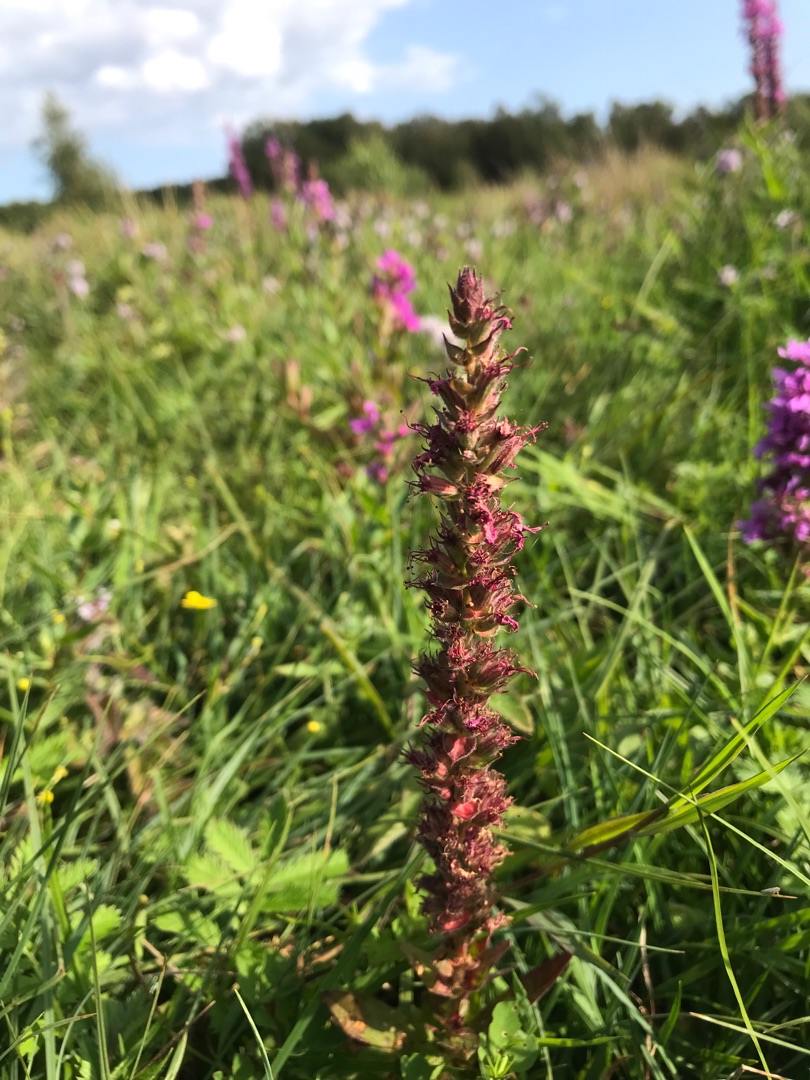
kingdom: Plantae
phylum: Tracheophyta
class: Magnoliopsida
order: Myrtales
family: Lythraceae
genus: Lythrum
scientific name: Lythrum salicaria
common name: Kattehale
